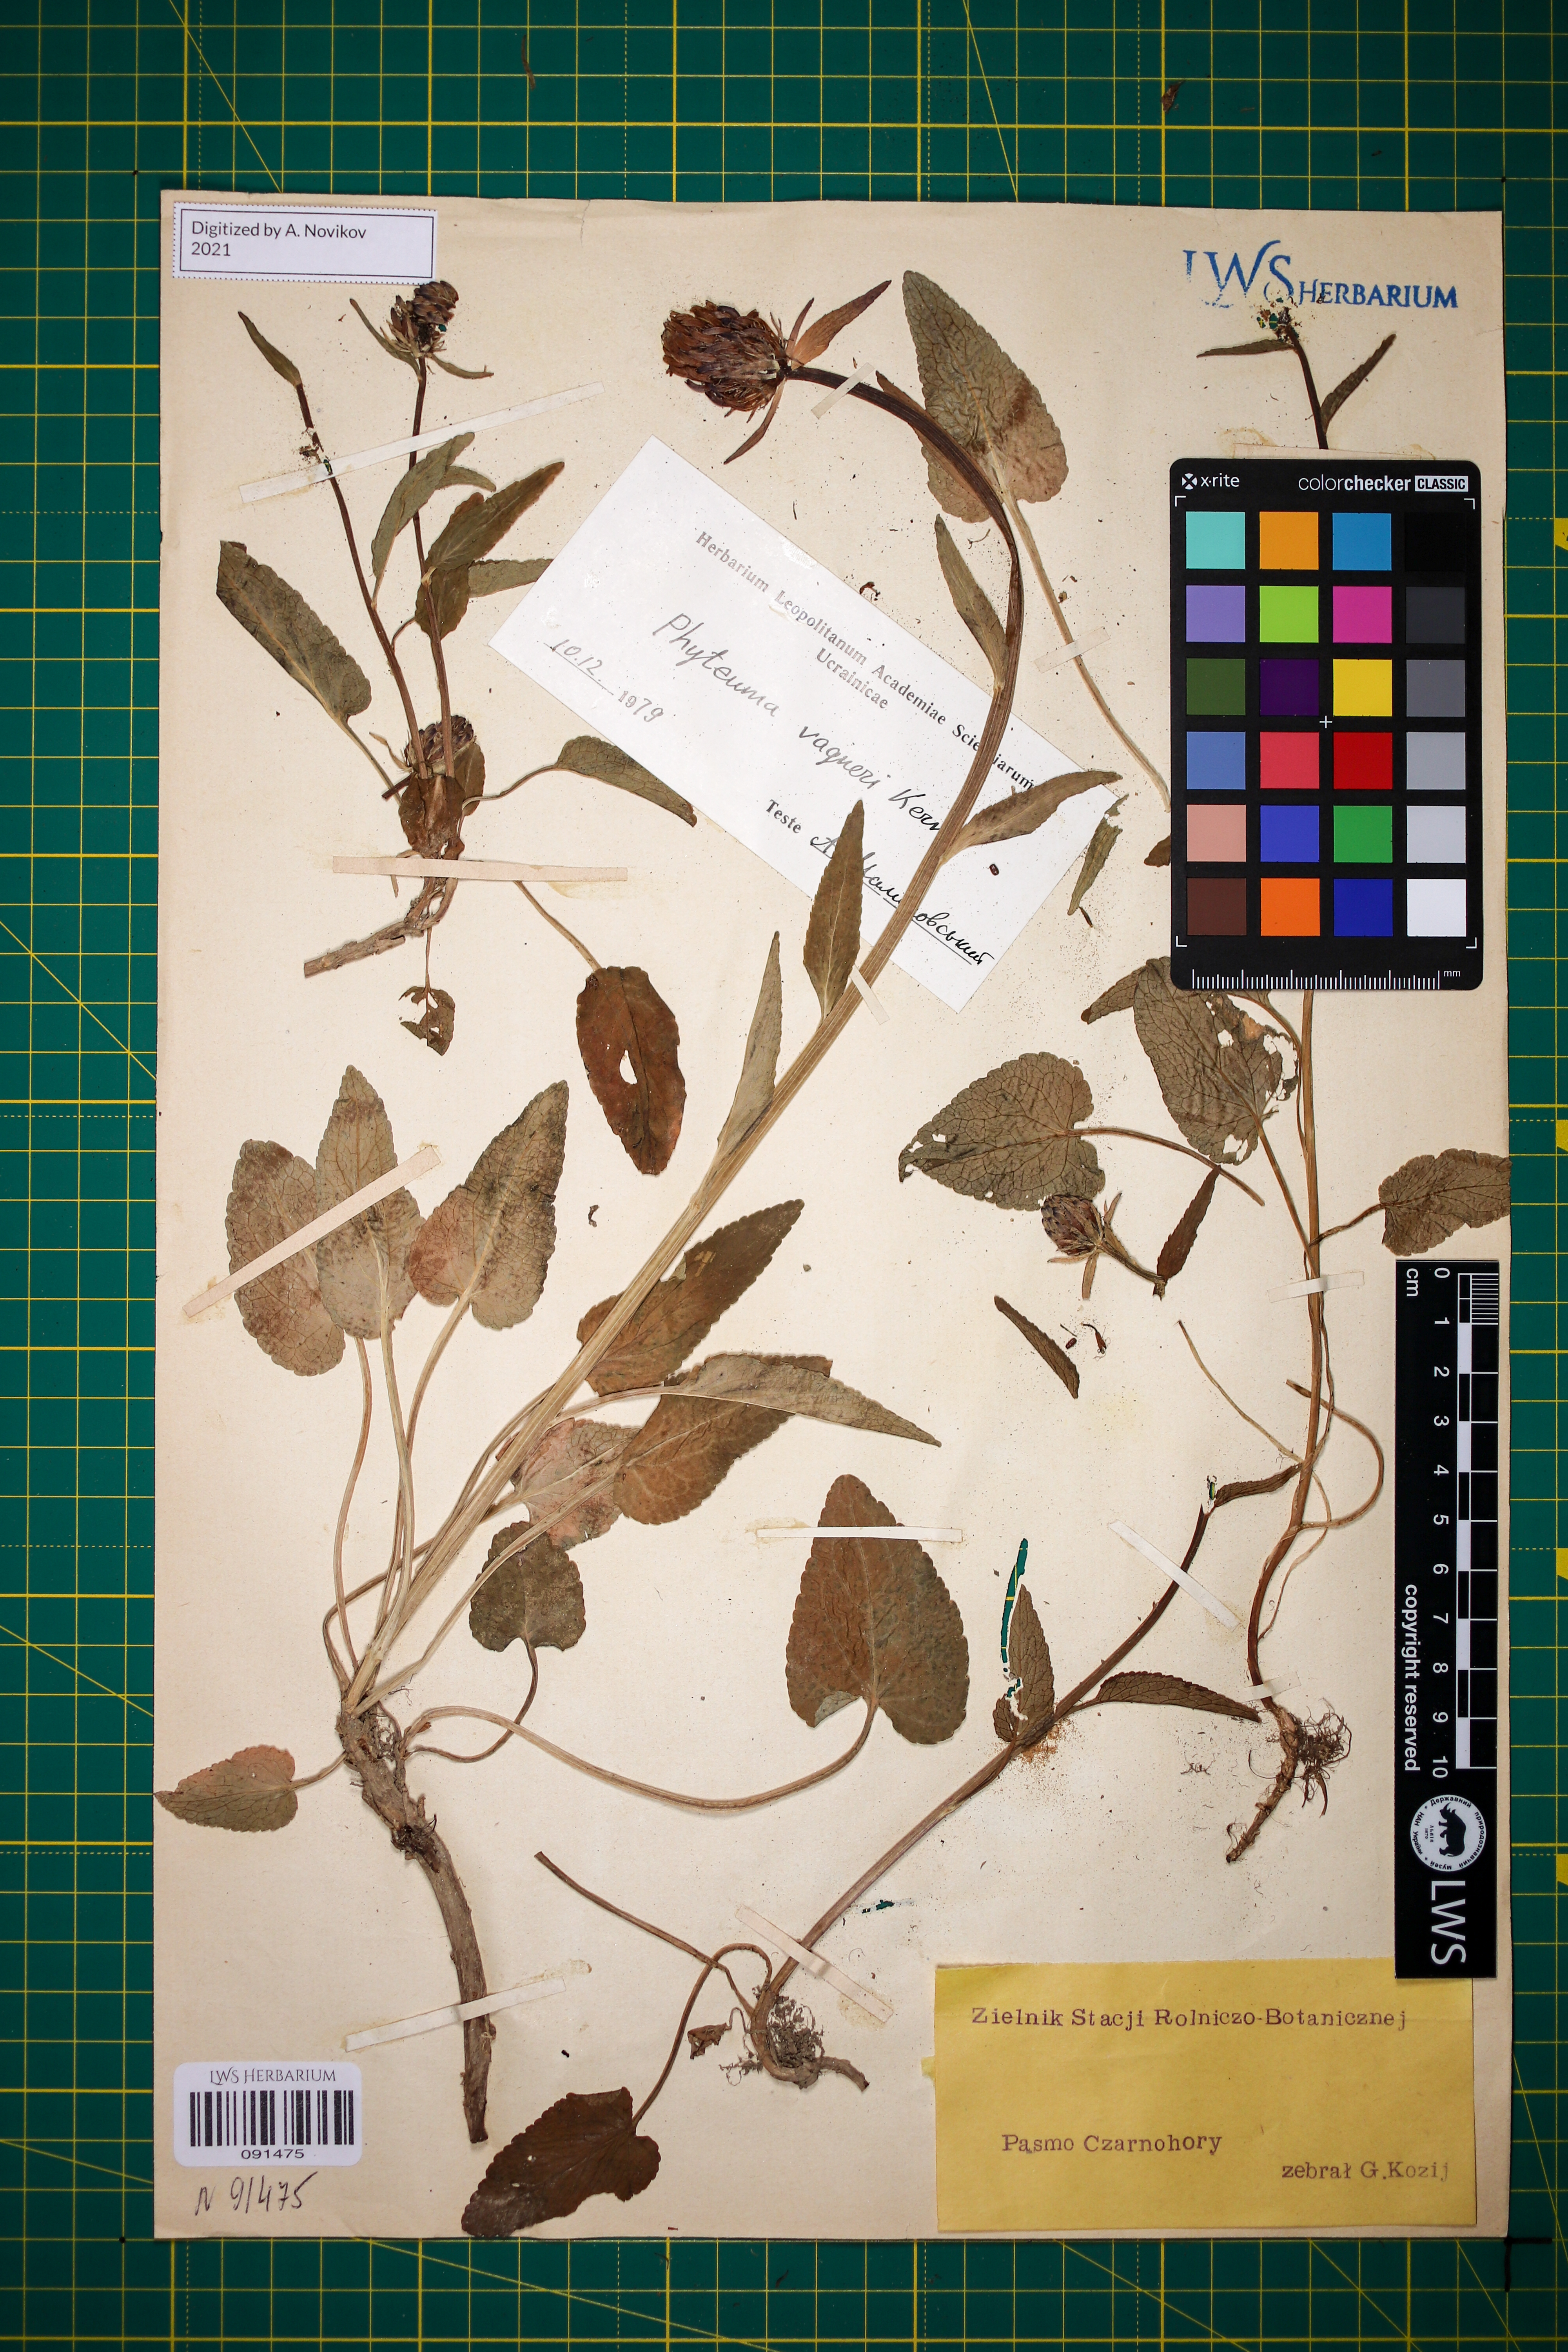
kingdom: Plantae
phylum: Tracheophyta
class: Magnoliopsida
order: Asterales
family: Campanulaceae
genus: Phyteuma
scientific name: Phyteuma vagneri
